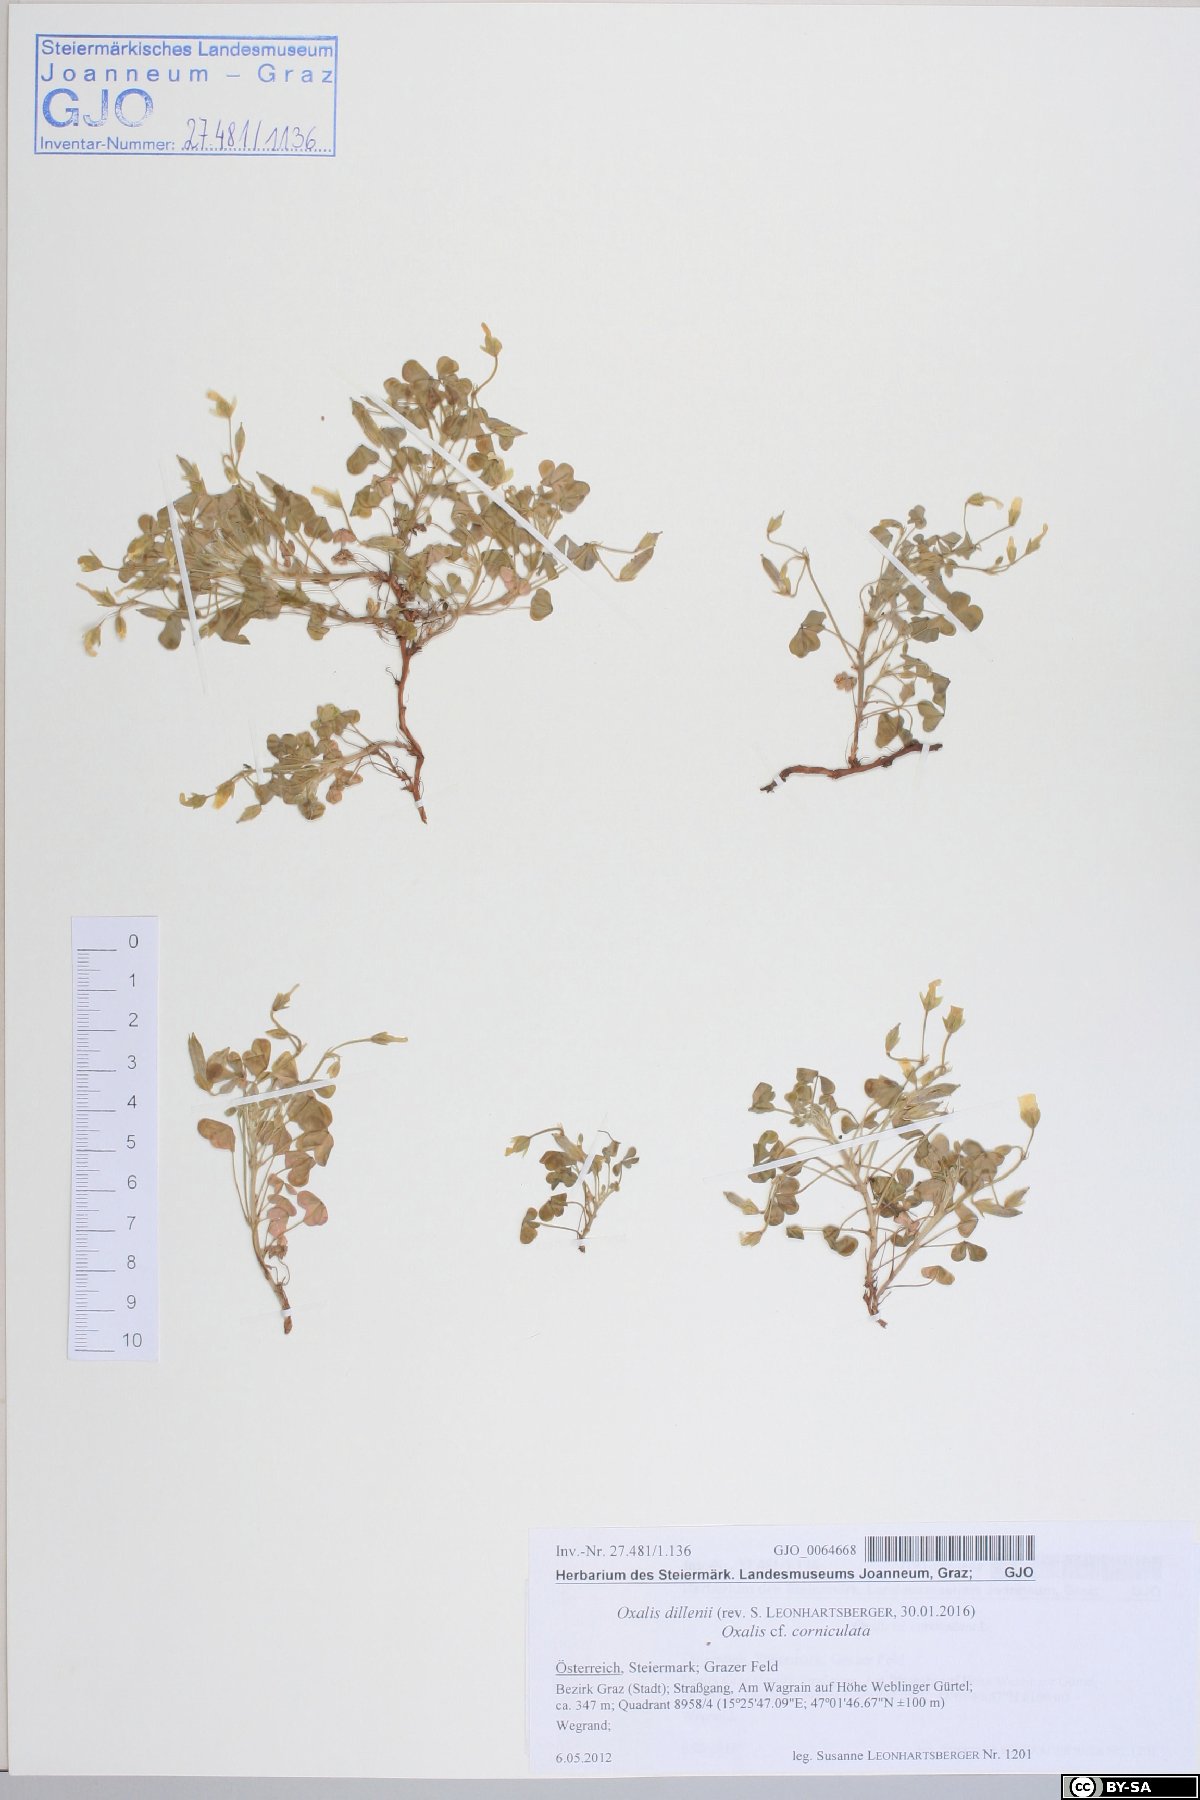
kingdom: Plantae
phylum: Tracheophyta
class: Magnoliopsida
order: Oxalidales
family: Oxalidaceae
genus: Oxalis
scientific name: Oxalis dillenii
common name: Sussex yellow-sorrel
